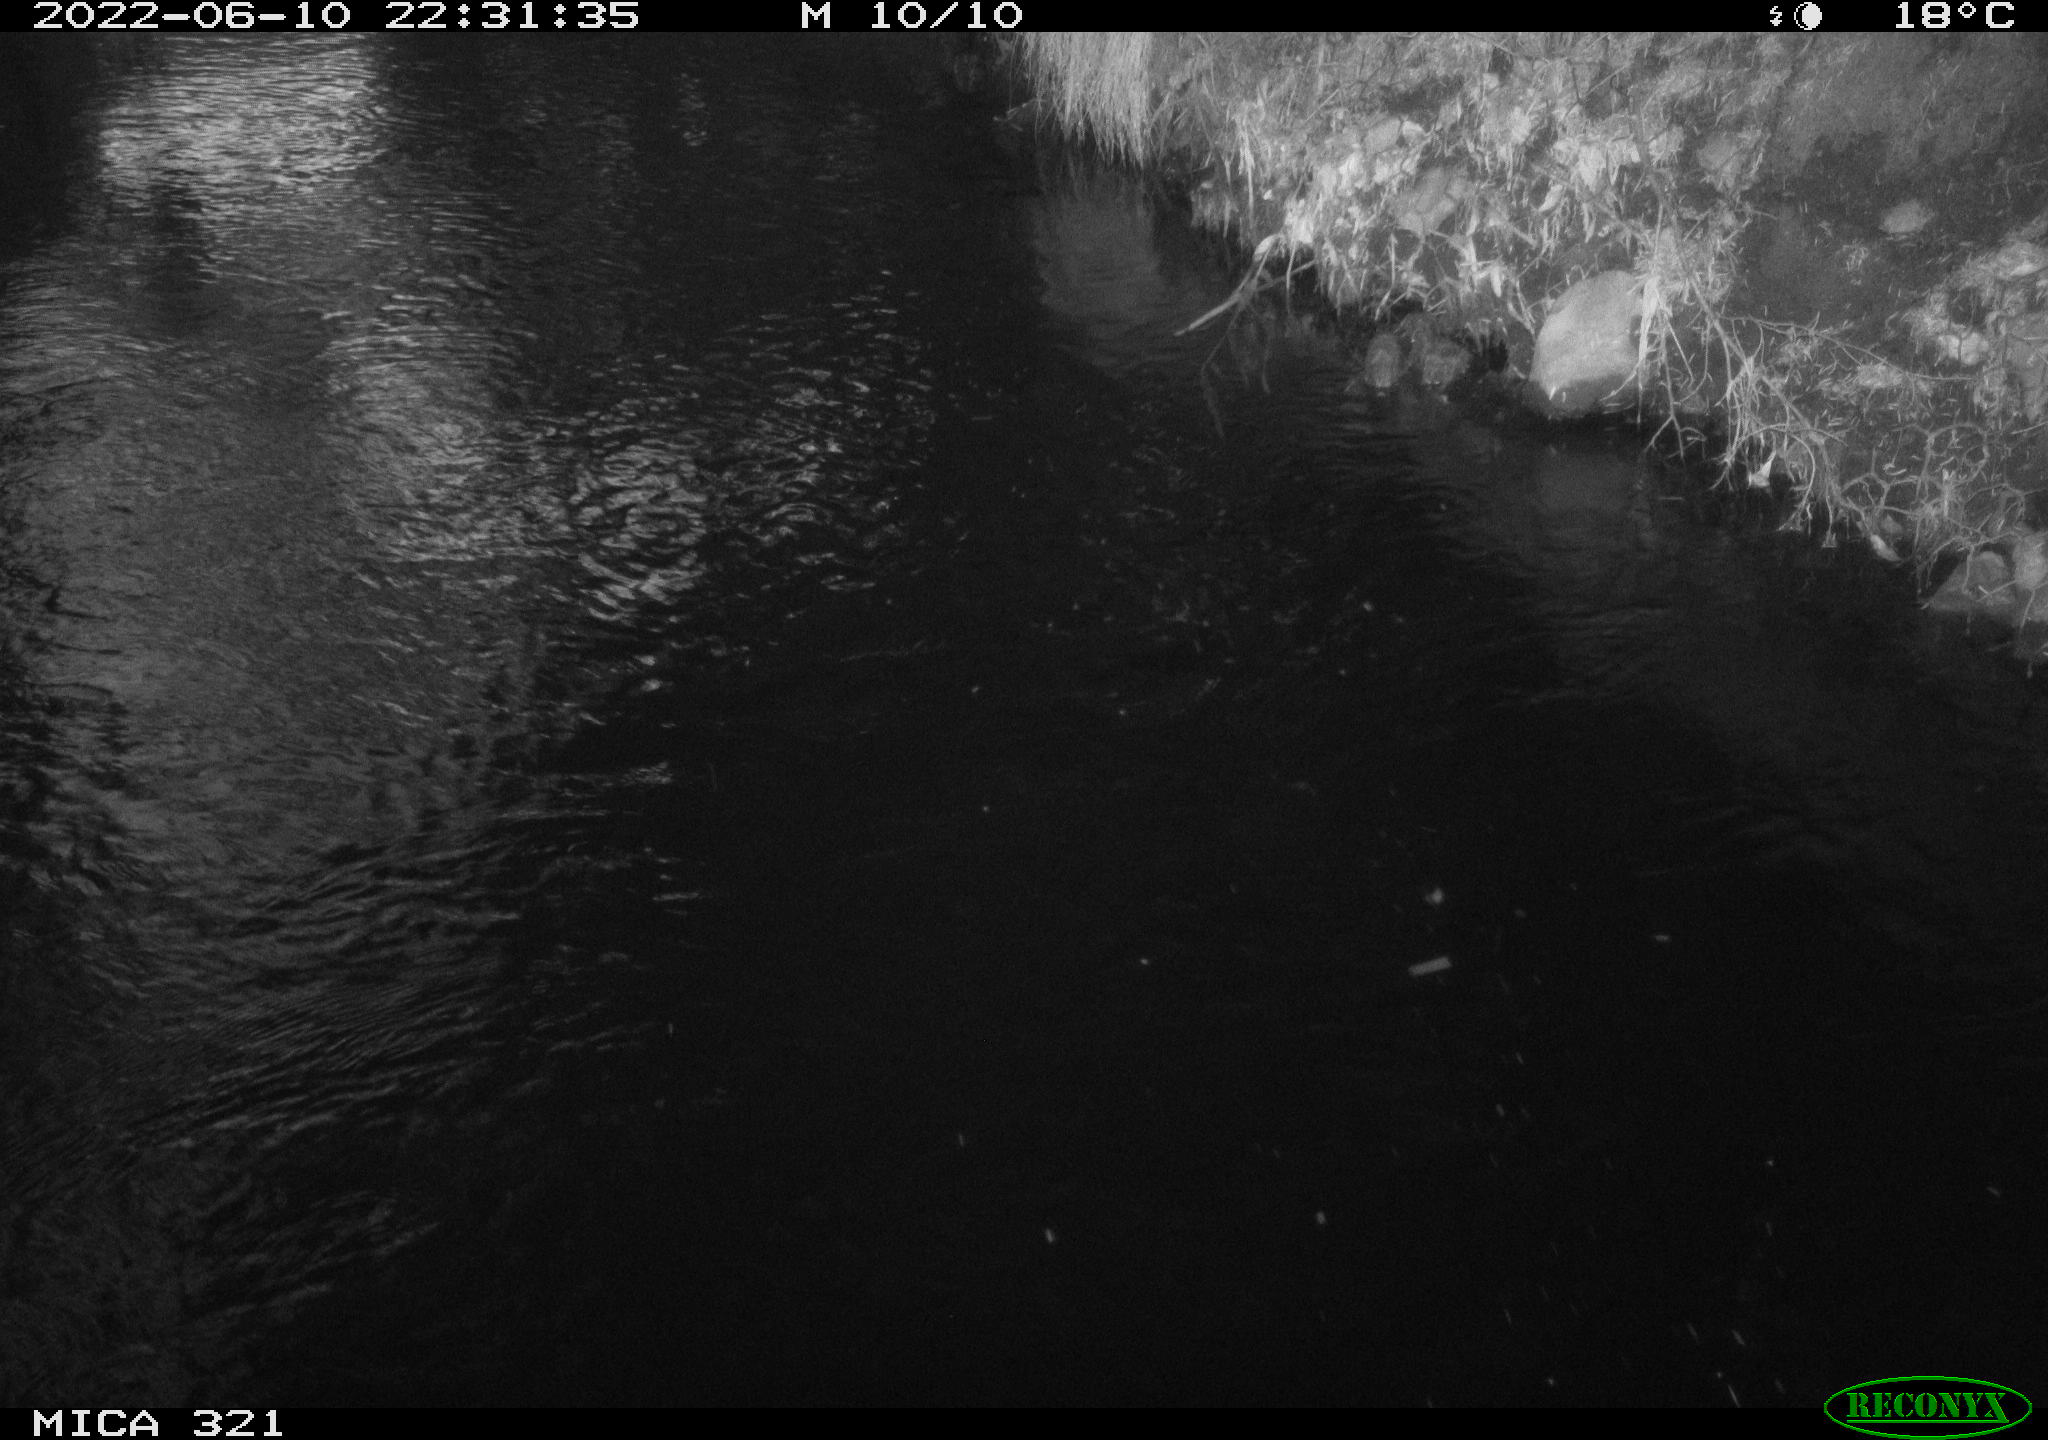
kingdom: Animalia
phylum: Chordata
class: Aves
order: Anseriformes
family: Anatidae
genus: Anas
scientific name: Anas platyrhynchos
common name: Mallard
